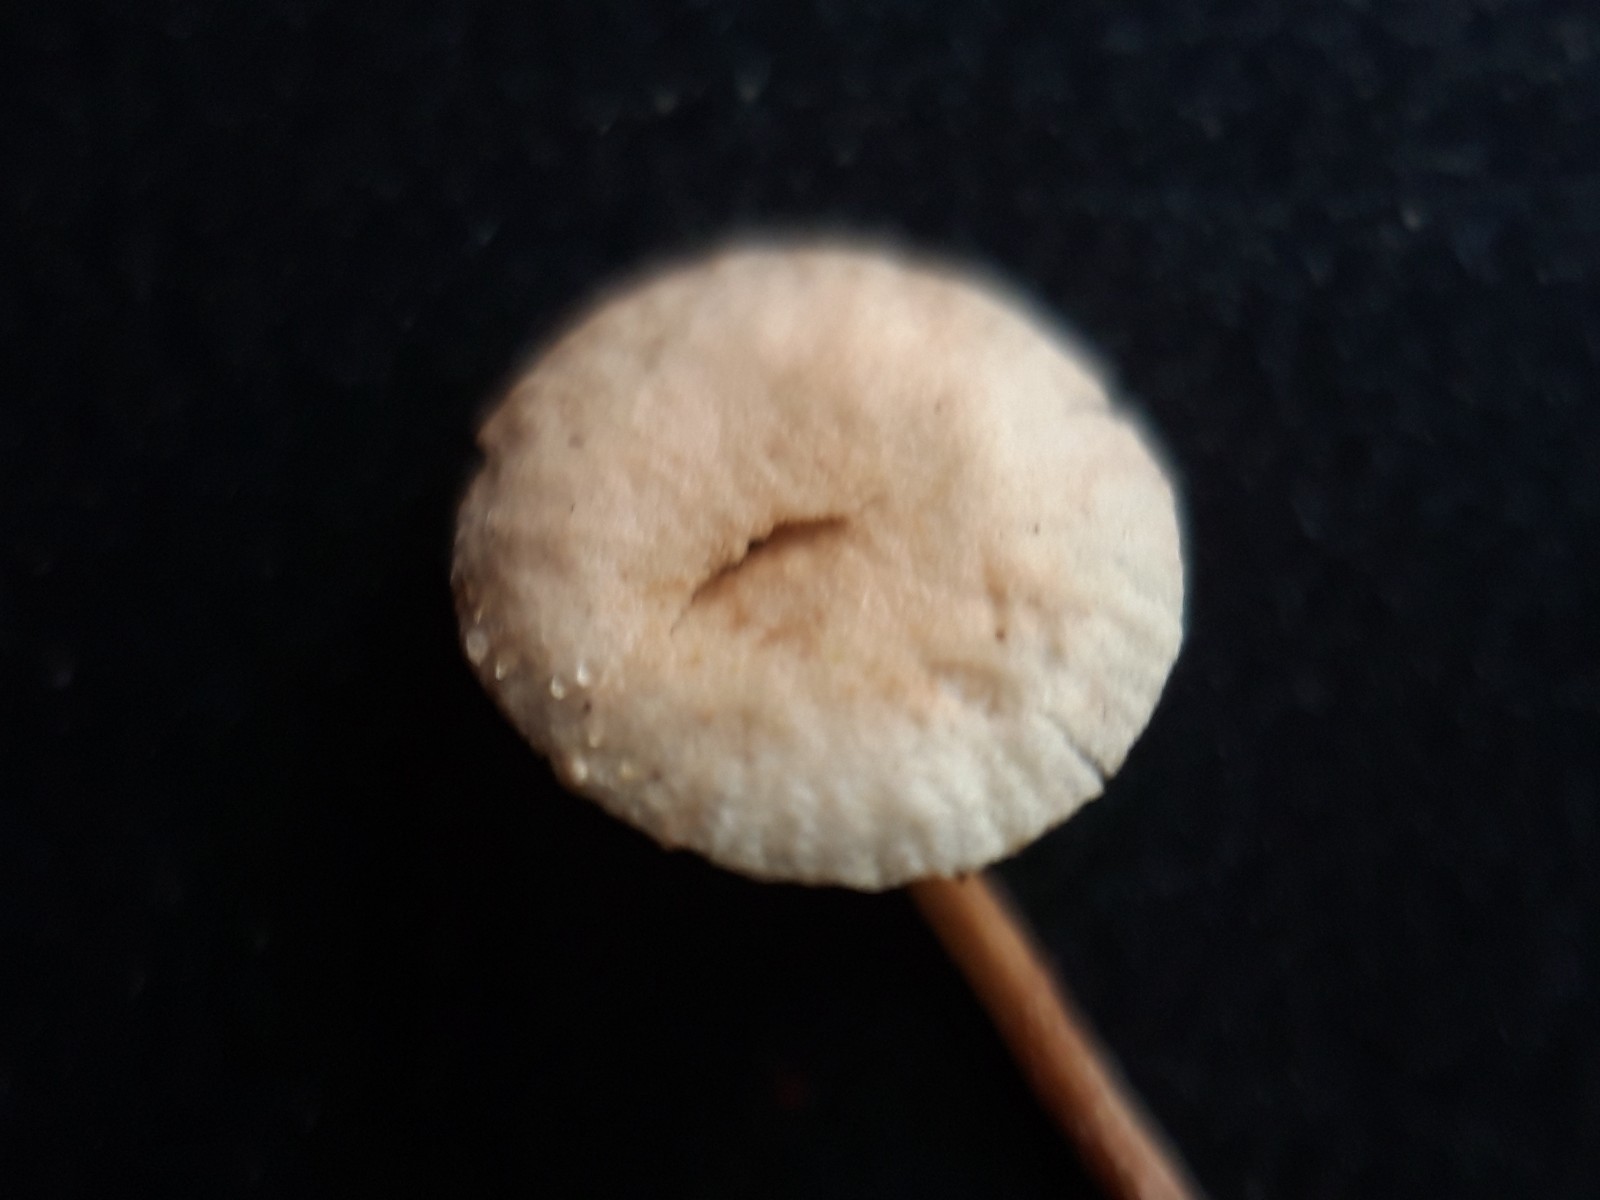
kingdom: Fungi
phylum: Basidiomycota
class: Agaricomycetes
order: Agaricales
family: Omphalotaceae
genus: Collybiopsis
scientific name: Collybiopsis ramealis
